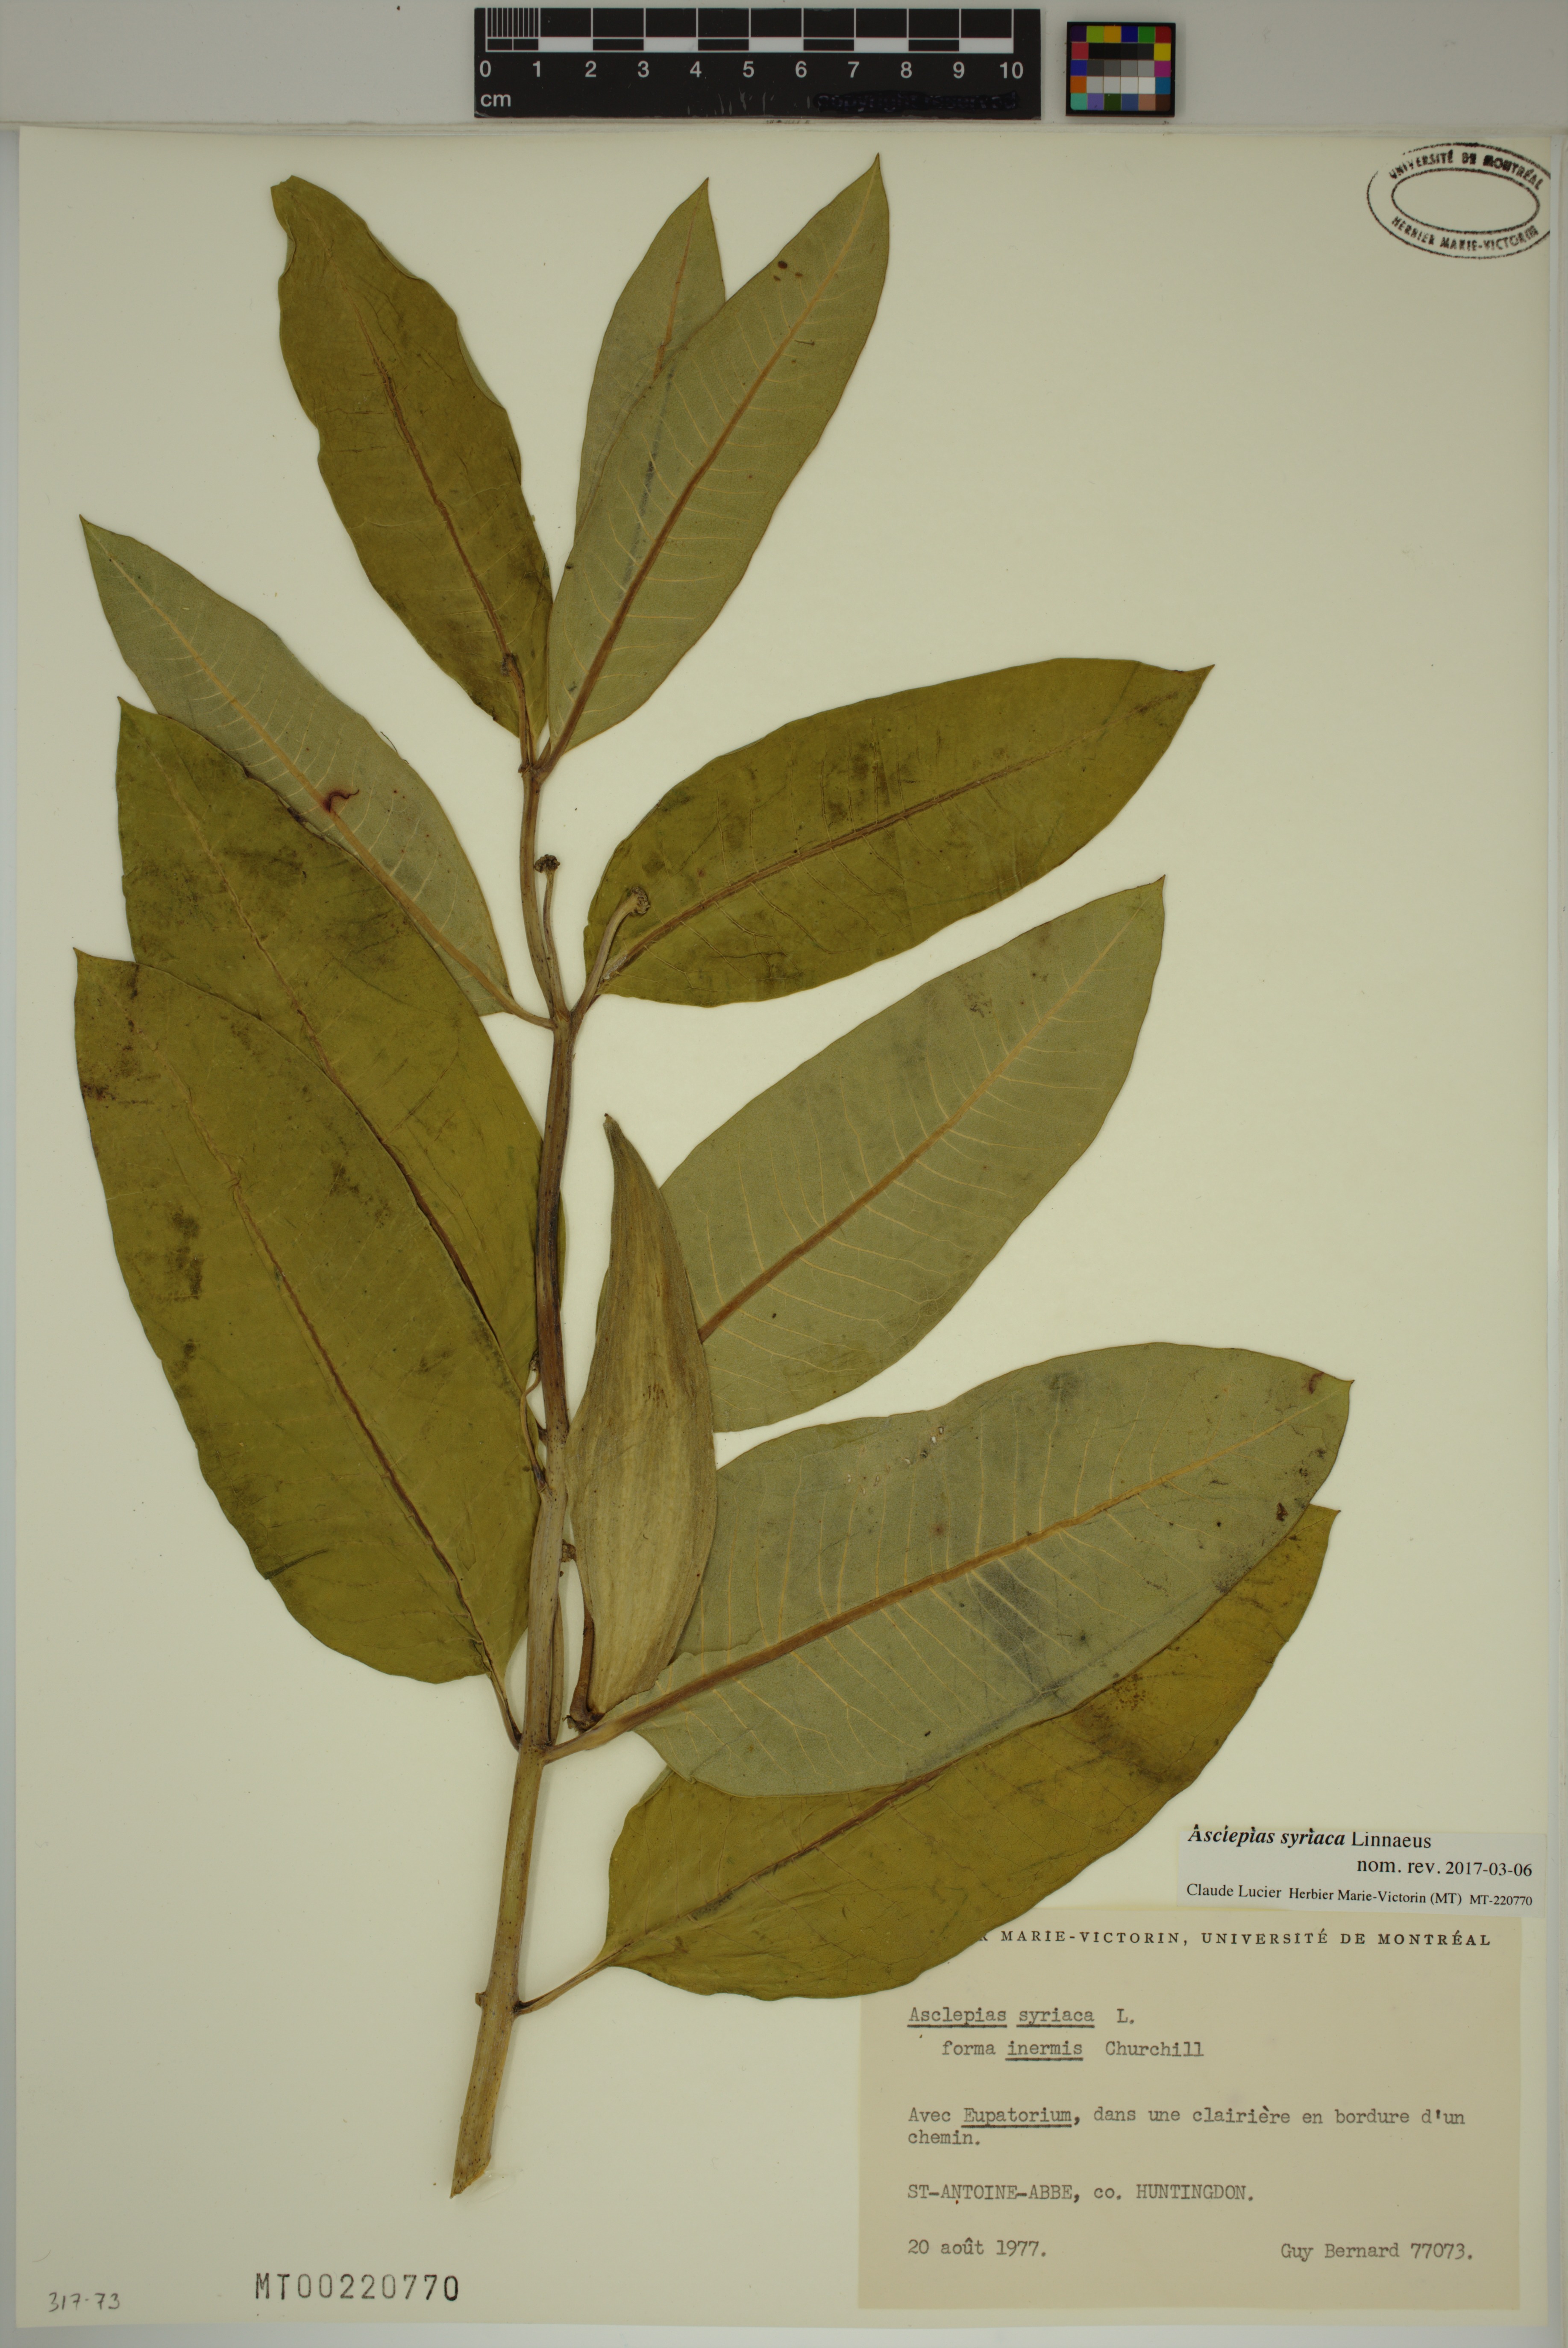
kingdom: Plantae
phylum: Tracheophyta
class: Magnoliopsida
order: Gentianales
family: Apocynaceae
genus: Asclepias
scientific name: Asclepias syriaca
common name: Common milkweed
